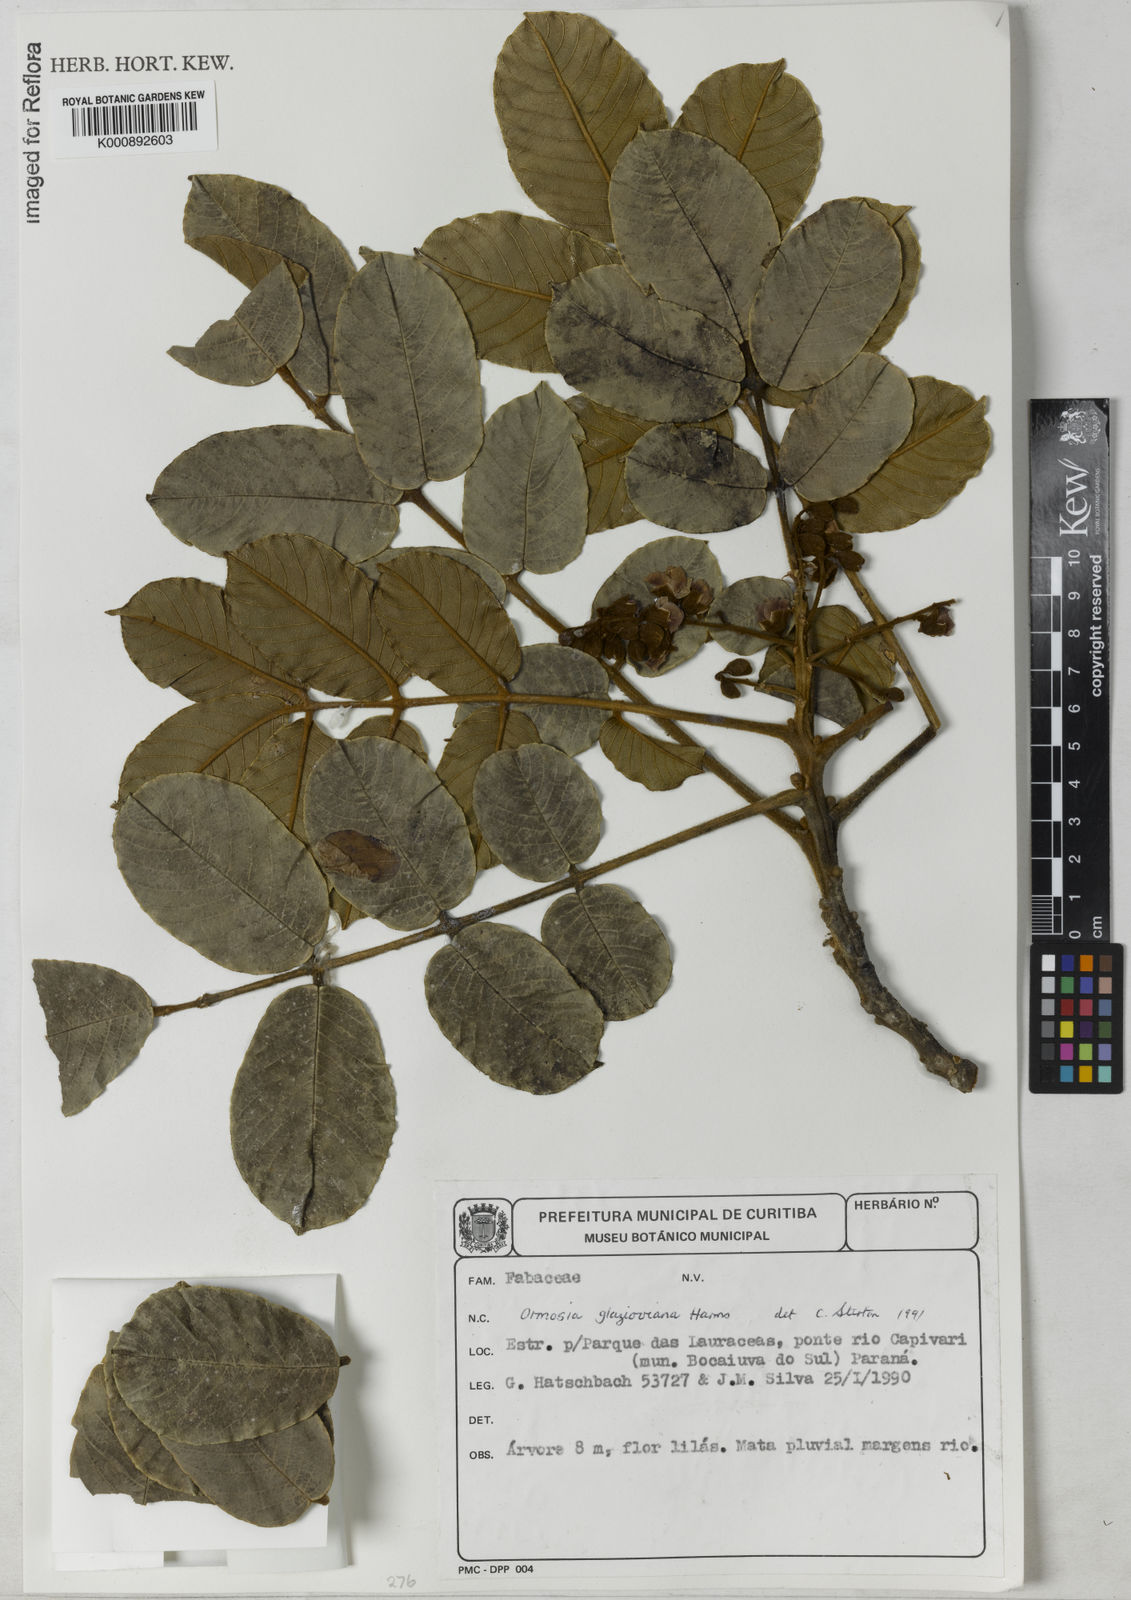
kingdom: Plantae
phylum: Tracheophyta
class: Magnoliopsida
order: Fabales
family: Fabaceae
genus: Ormosia
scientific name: Ormosia fastigiata
